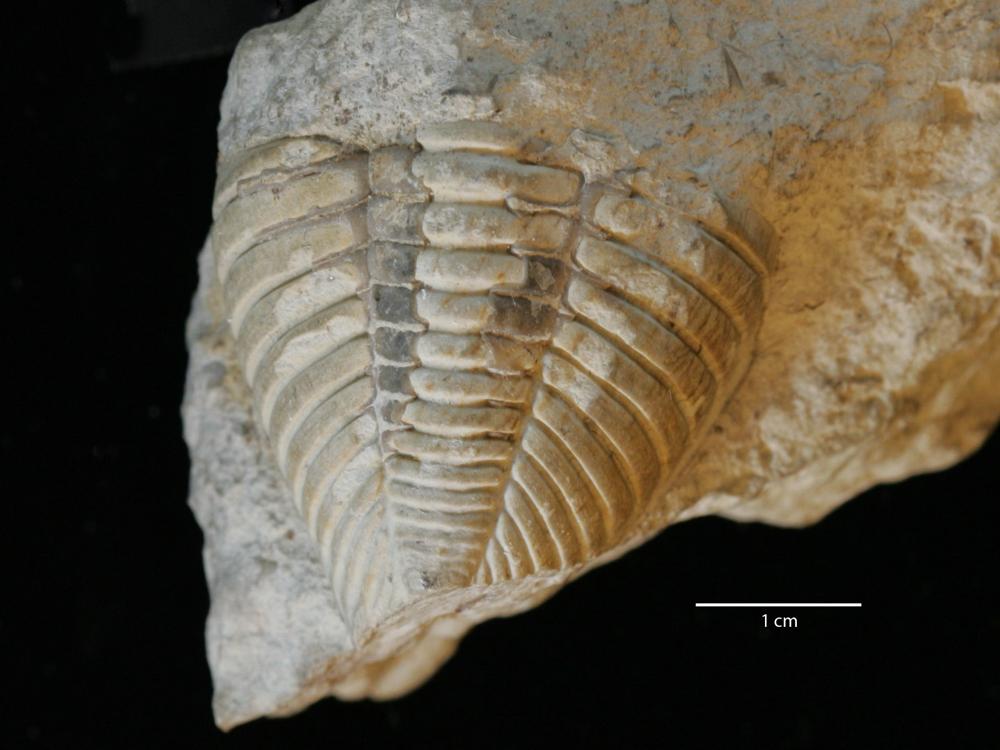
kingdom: Animalia
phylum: Arthropoda
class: Trilobita
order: Phacopida
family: Pterygometopidae
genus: Toxochasmops
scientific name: Toxochasmops maximus
